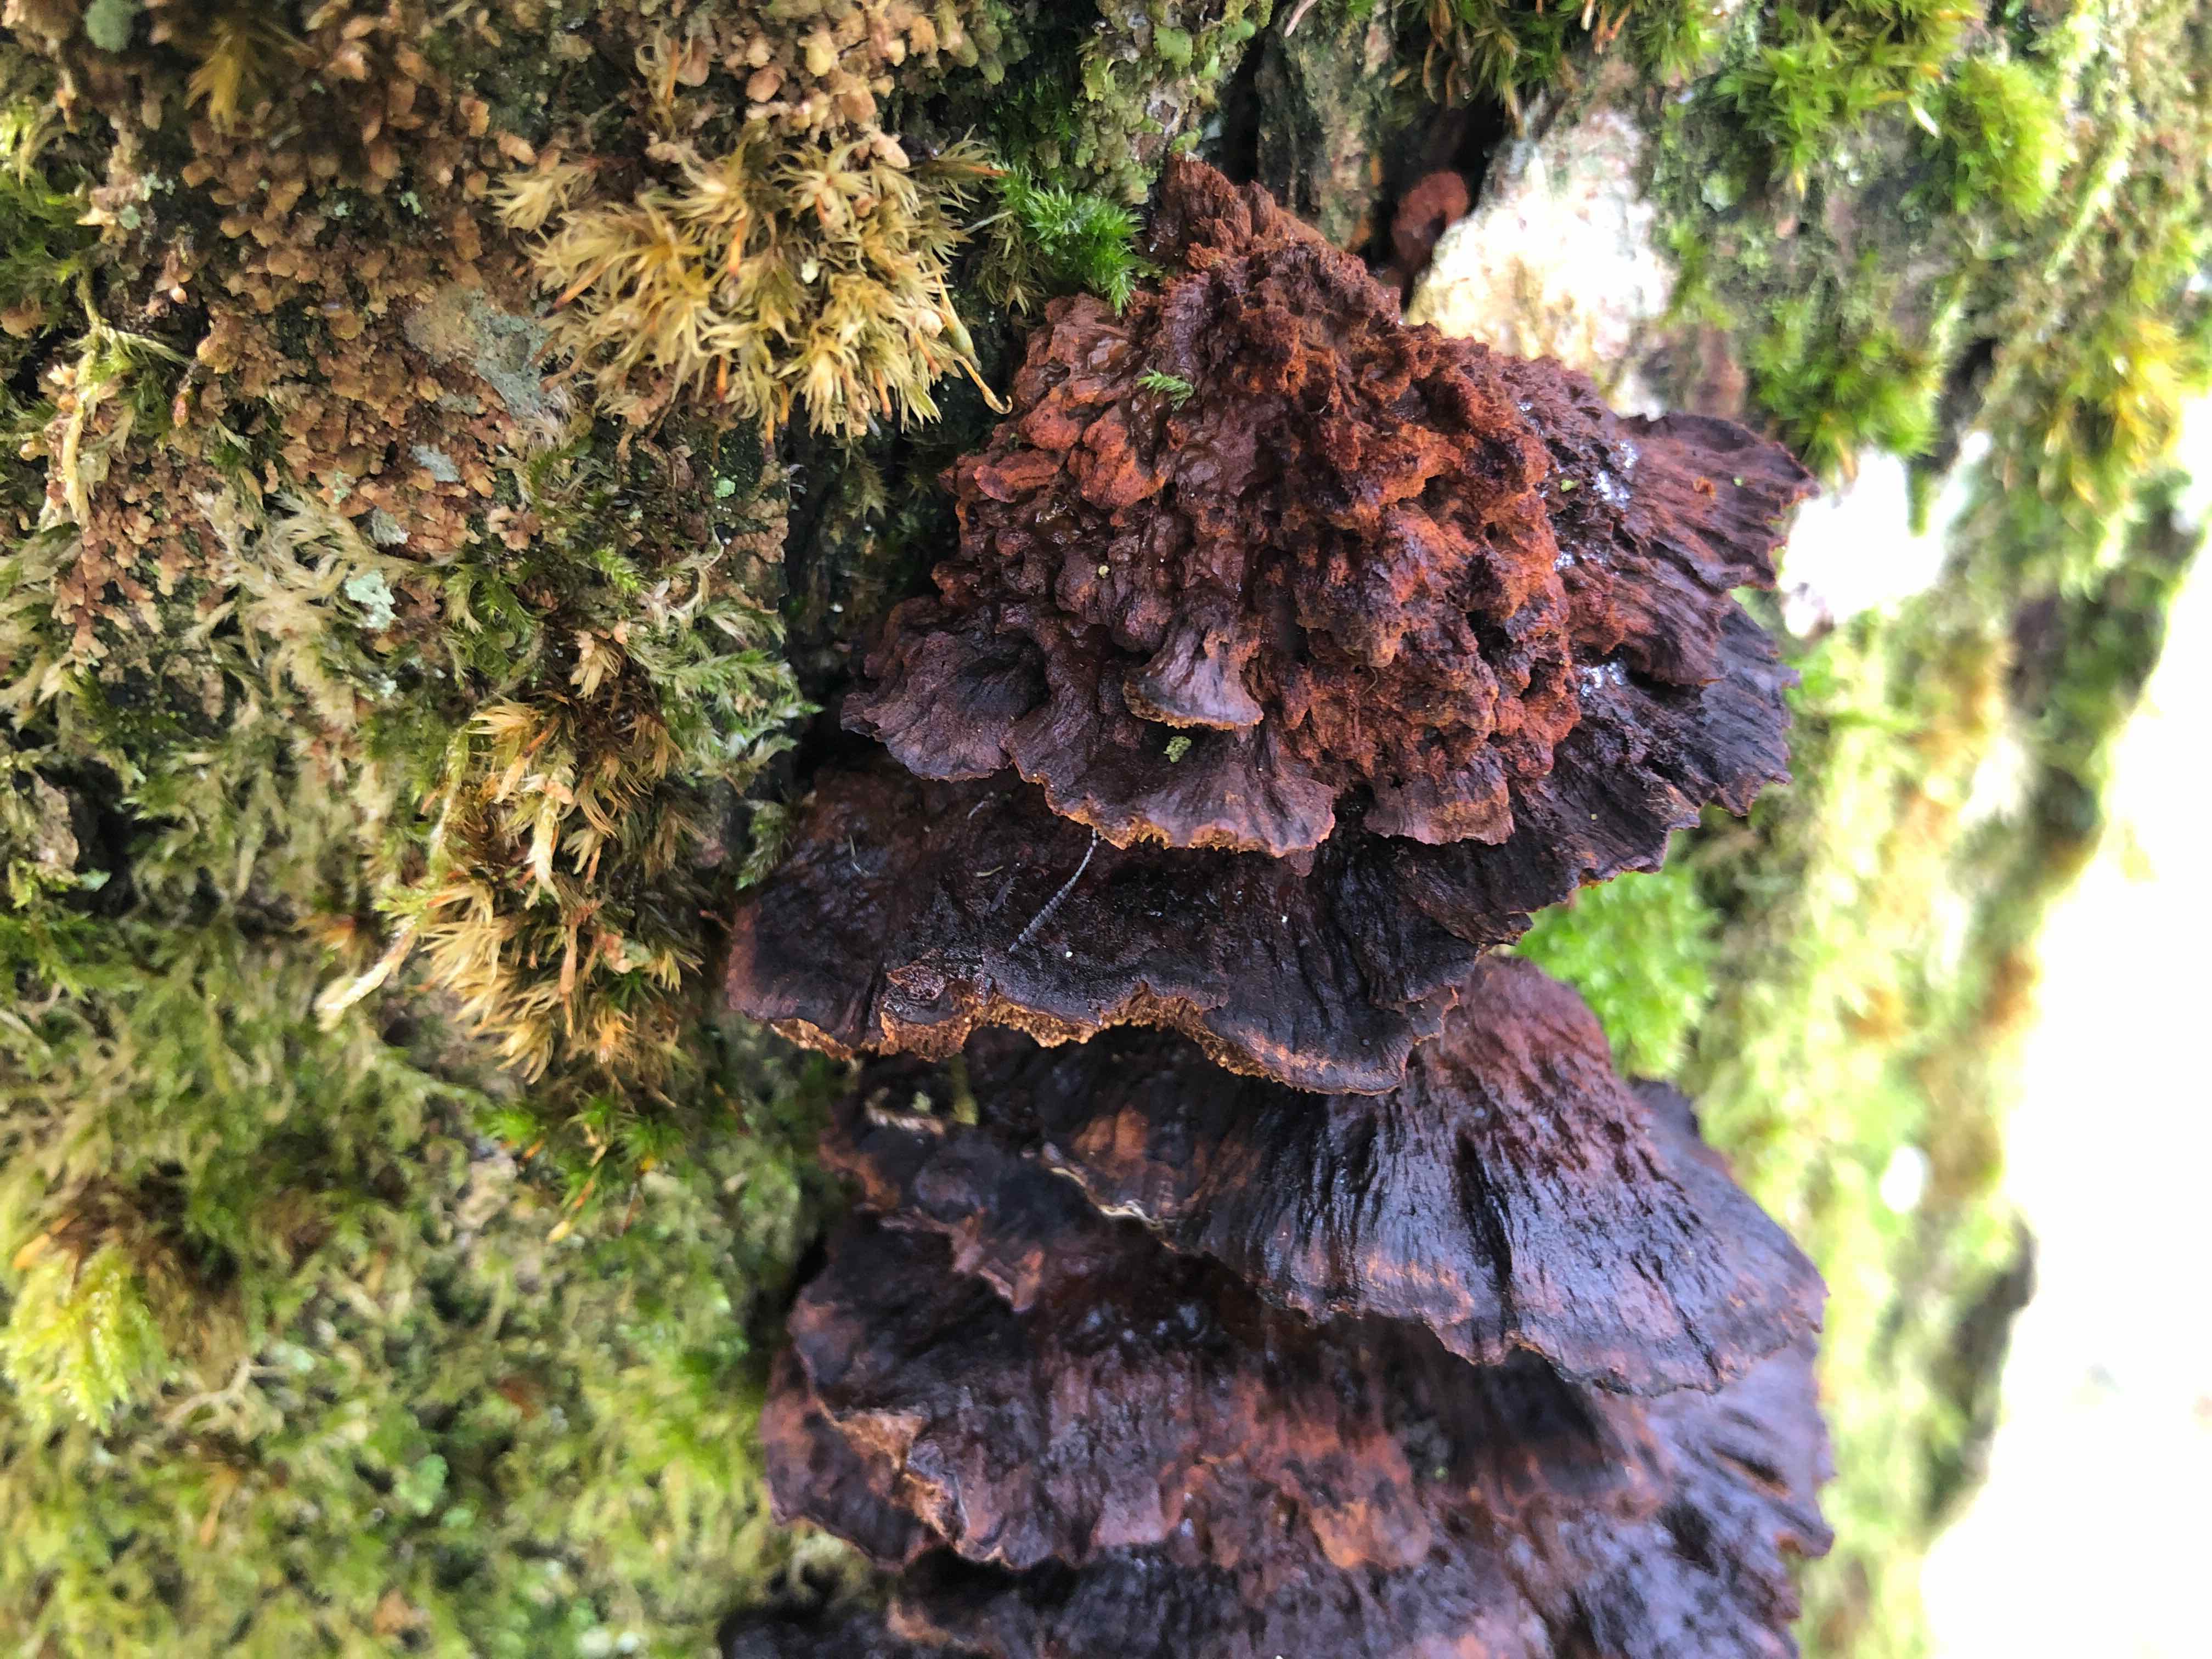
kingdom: Fungi
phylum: Basidiomycota
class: Agaricomycetes
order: Hymenochaetales
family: Hymenochaetaceae
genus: Xanthoporia
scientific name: Xanthoporia radiata
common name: elle-spejlporesvamp
